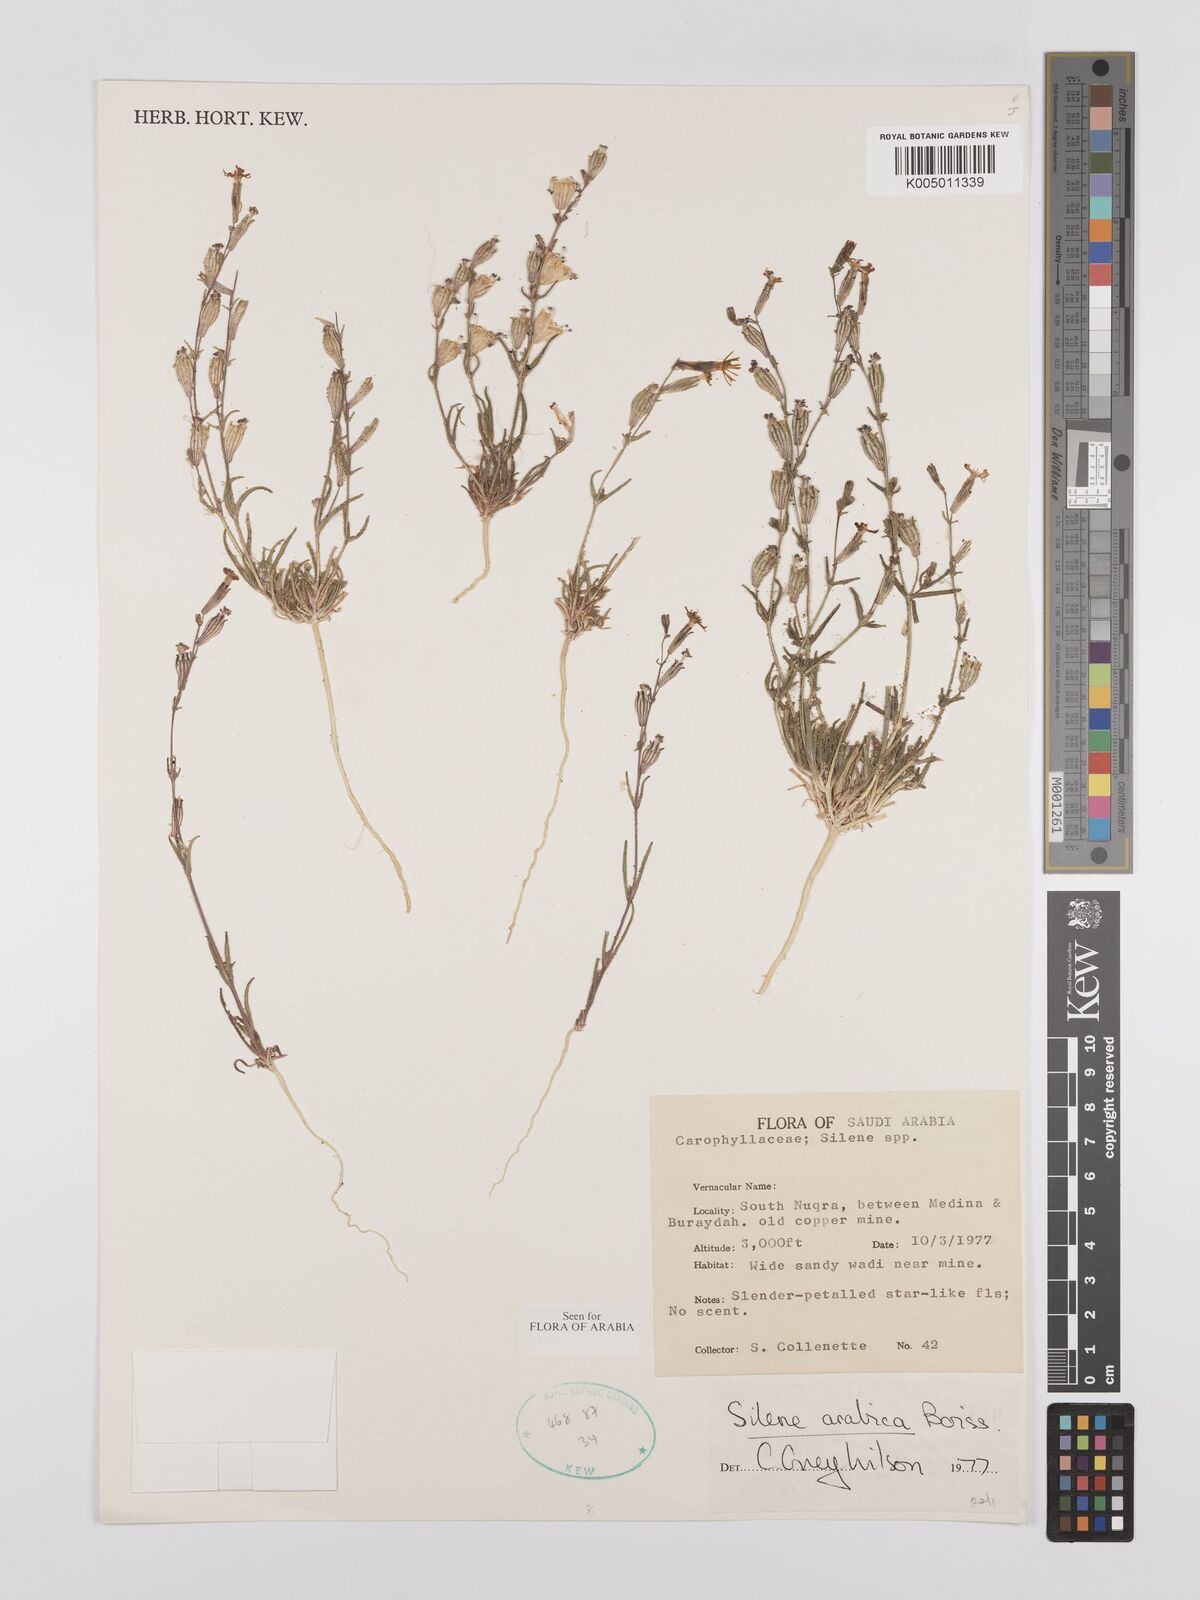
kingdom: Plantae
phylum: Tracheophyta
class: Magnoliopsida
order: Caryophyllales
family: Caryophyllaceae
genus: Silene
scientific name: Silene arabica
